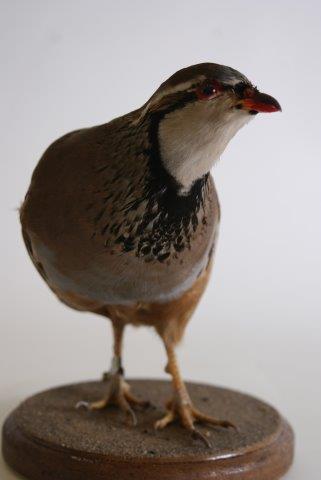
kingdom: Animalia
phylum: Chordata
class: Aves
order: Galliformes
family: Phasianidae
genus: Alectoris
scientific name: Alectoris rufa
